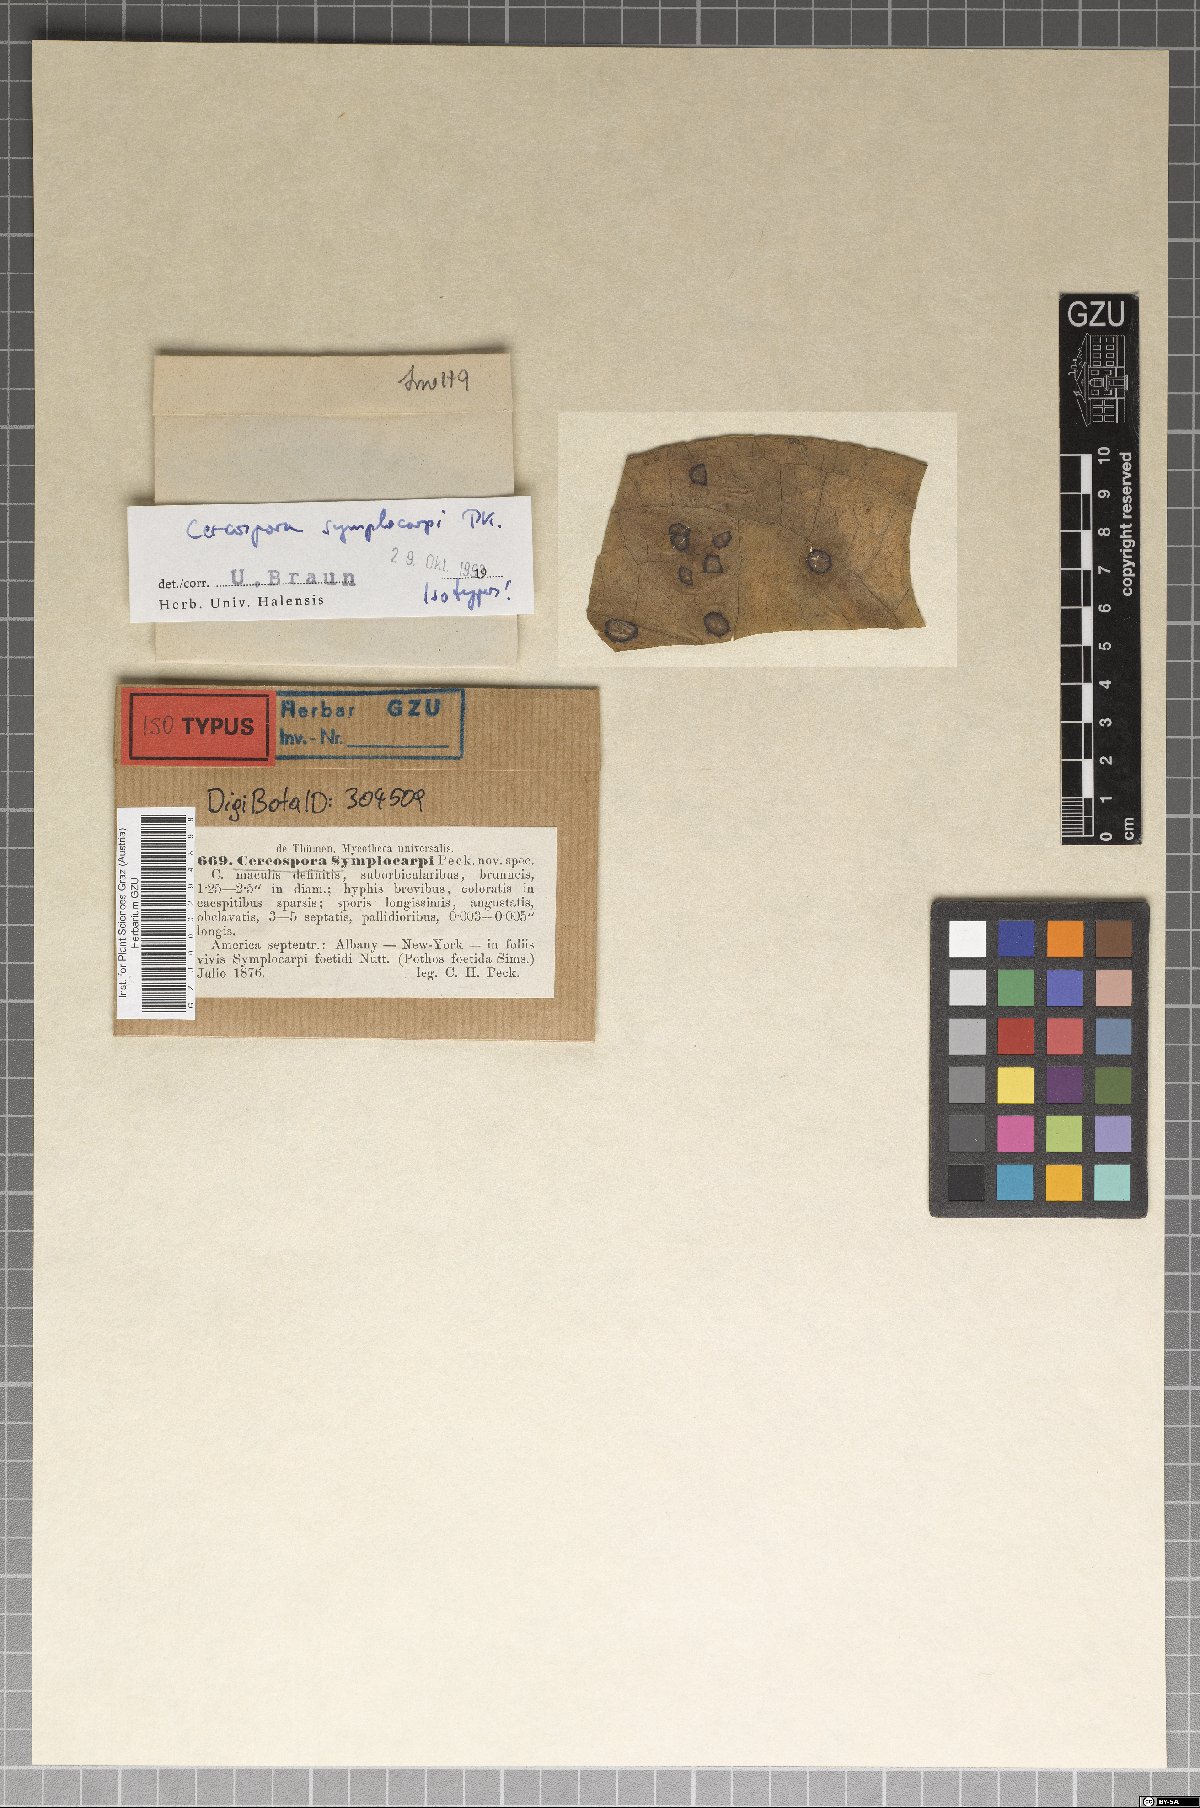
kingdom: Fungi
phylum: Ascomycota
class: Dothideomycetes
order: Mycosphaerellales
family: Mycosphaerellaceae
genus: Cercospora
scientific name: Cercospora
